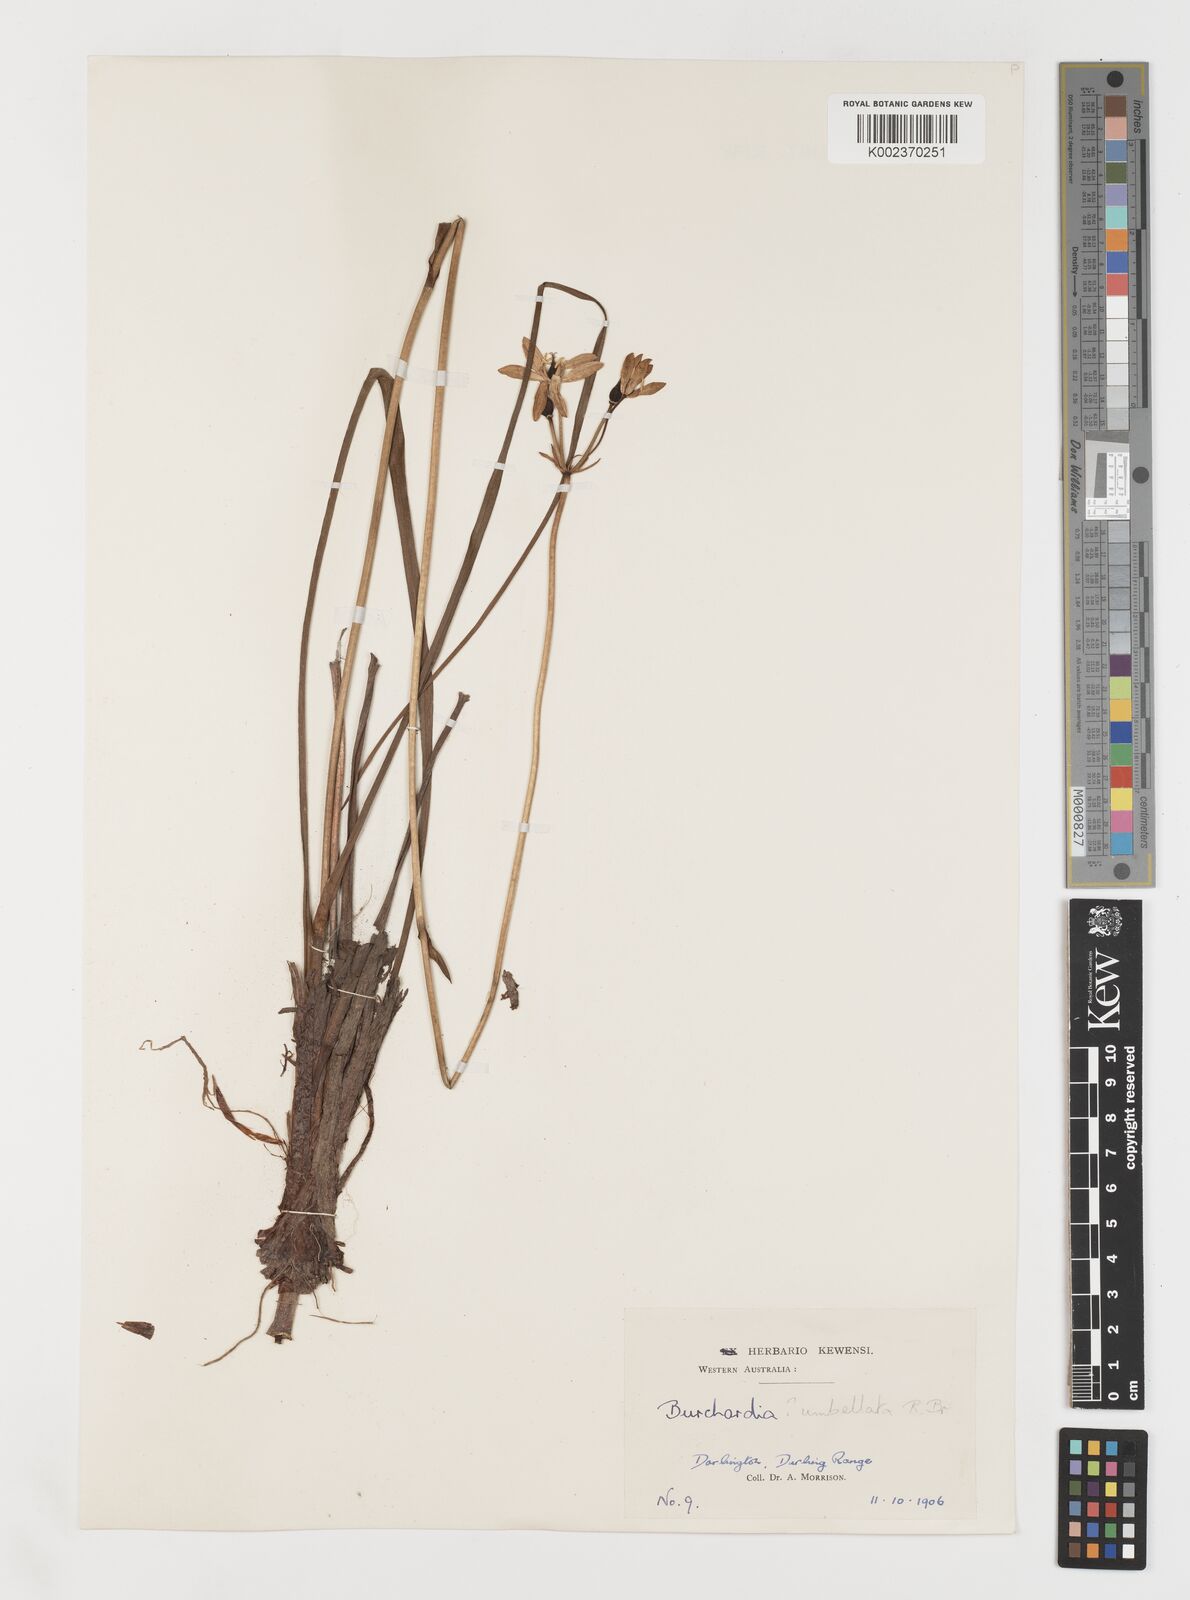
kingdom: Plantae
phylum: Tracheophyta
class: Liliopsida
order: Liliales
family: Colchicaceae
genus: Burchardia
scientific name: Burchardia umbellata
